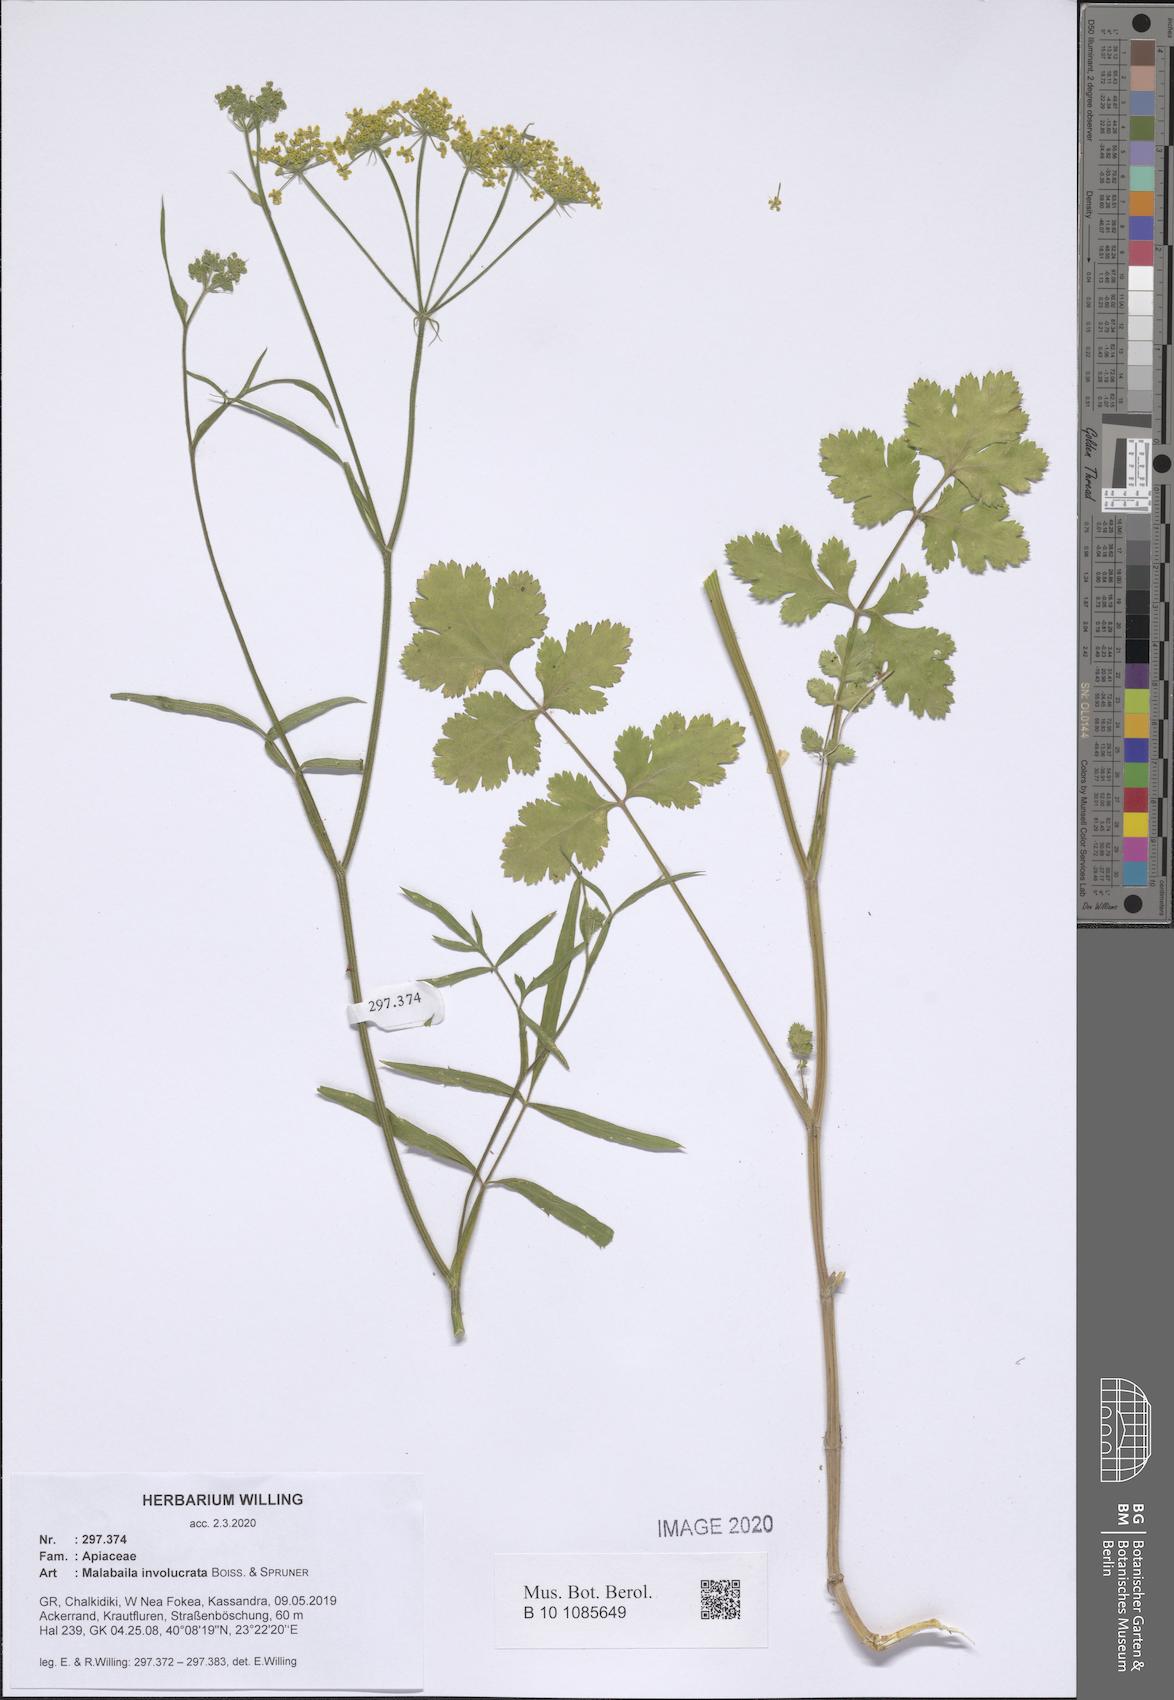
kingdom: Plantae
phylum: Tracheophyta
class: Magnoliopsida
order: Apiales
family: Apiaceae
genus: Leiotulus
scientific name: Leiotulus involucratus
